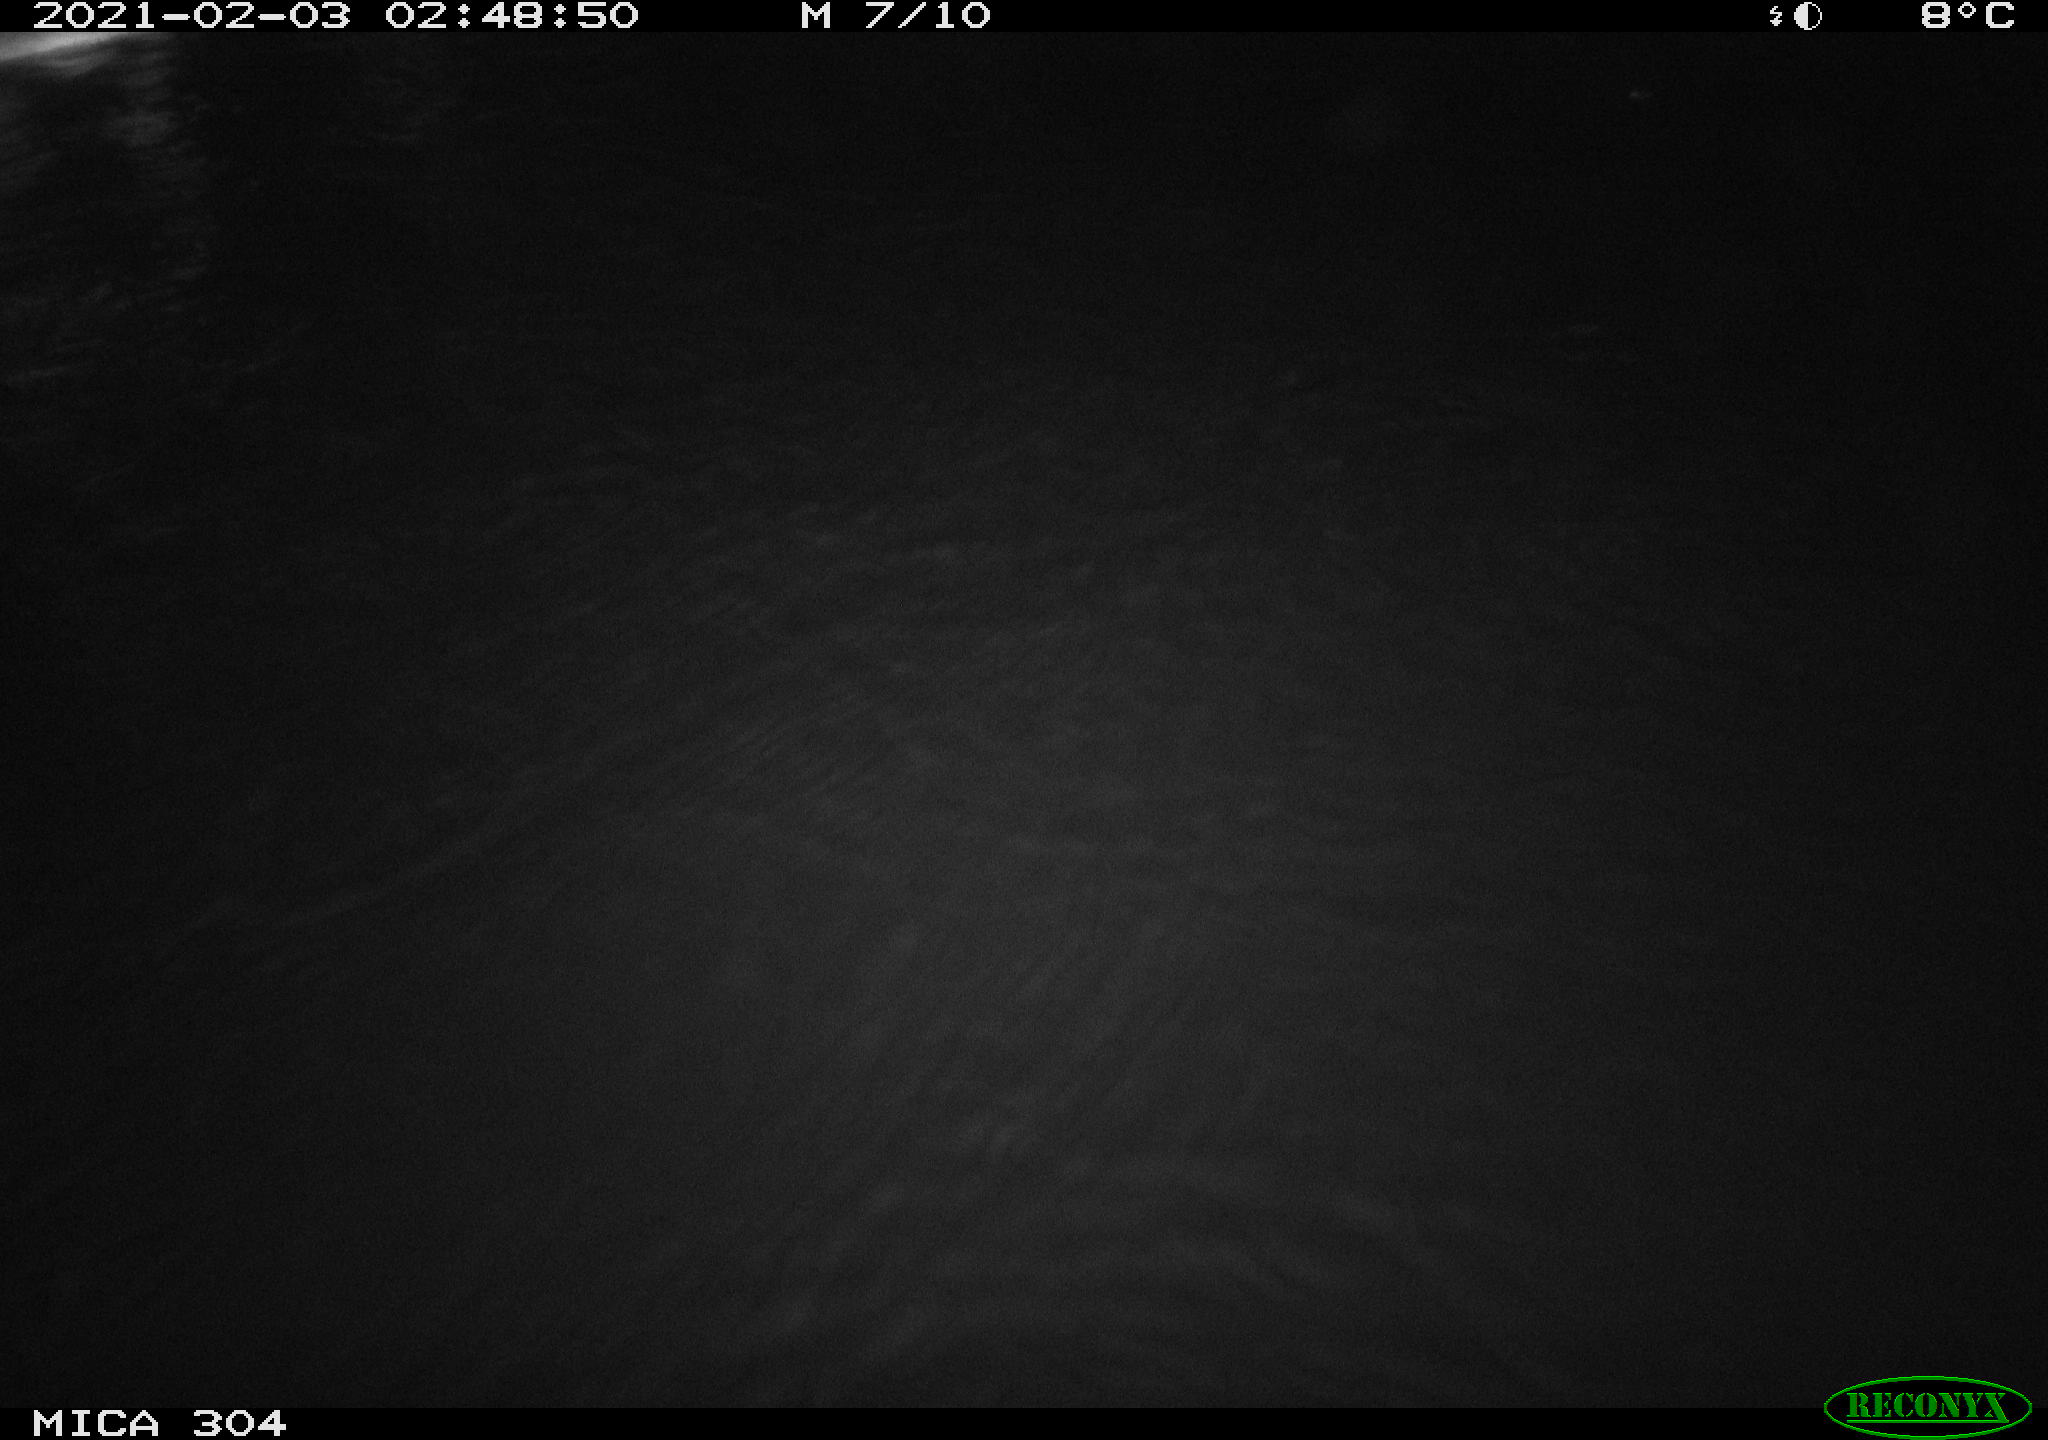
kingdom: Animalia
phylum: Chordata
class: Mammalia
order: Rodentia
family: Muridae
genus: Rattus
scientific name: Rattus norvegicus
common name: Brown rat
